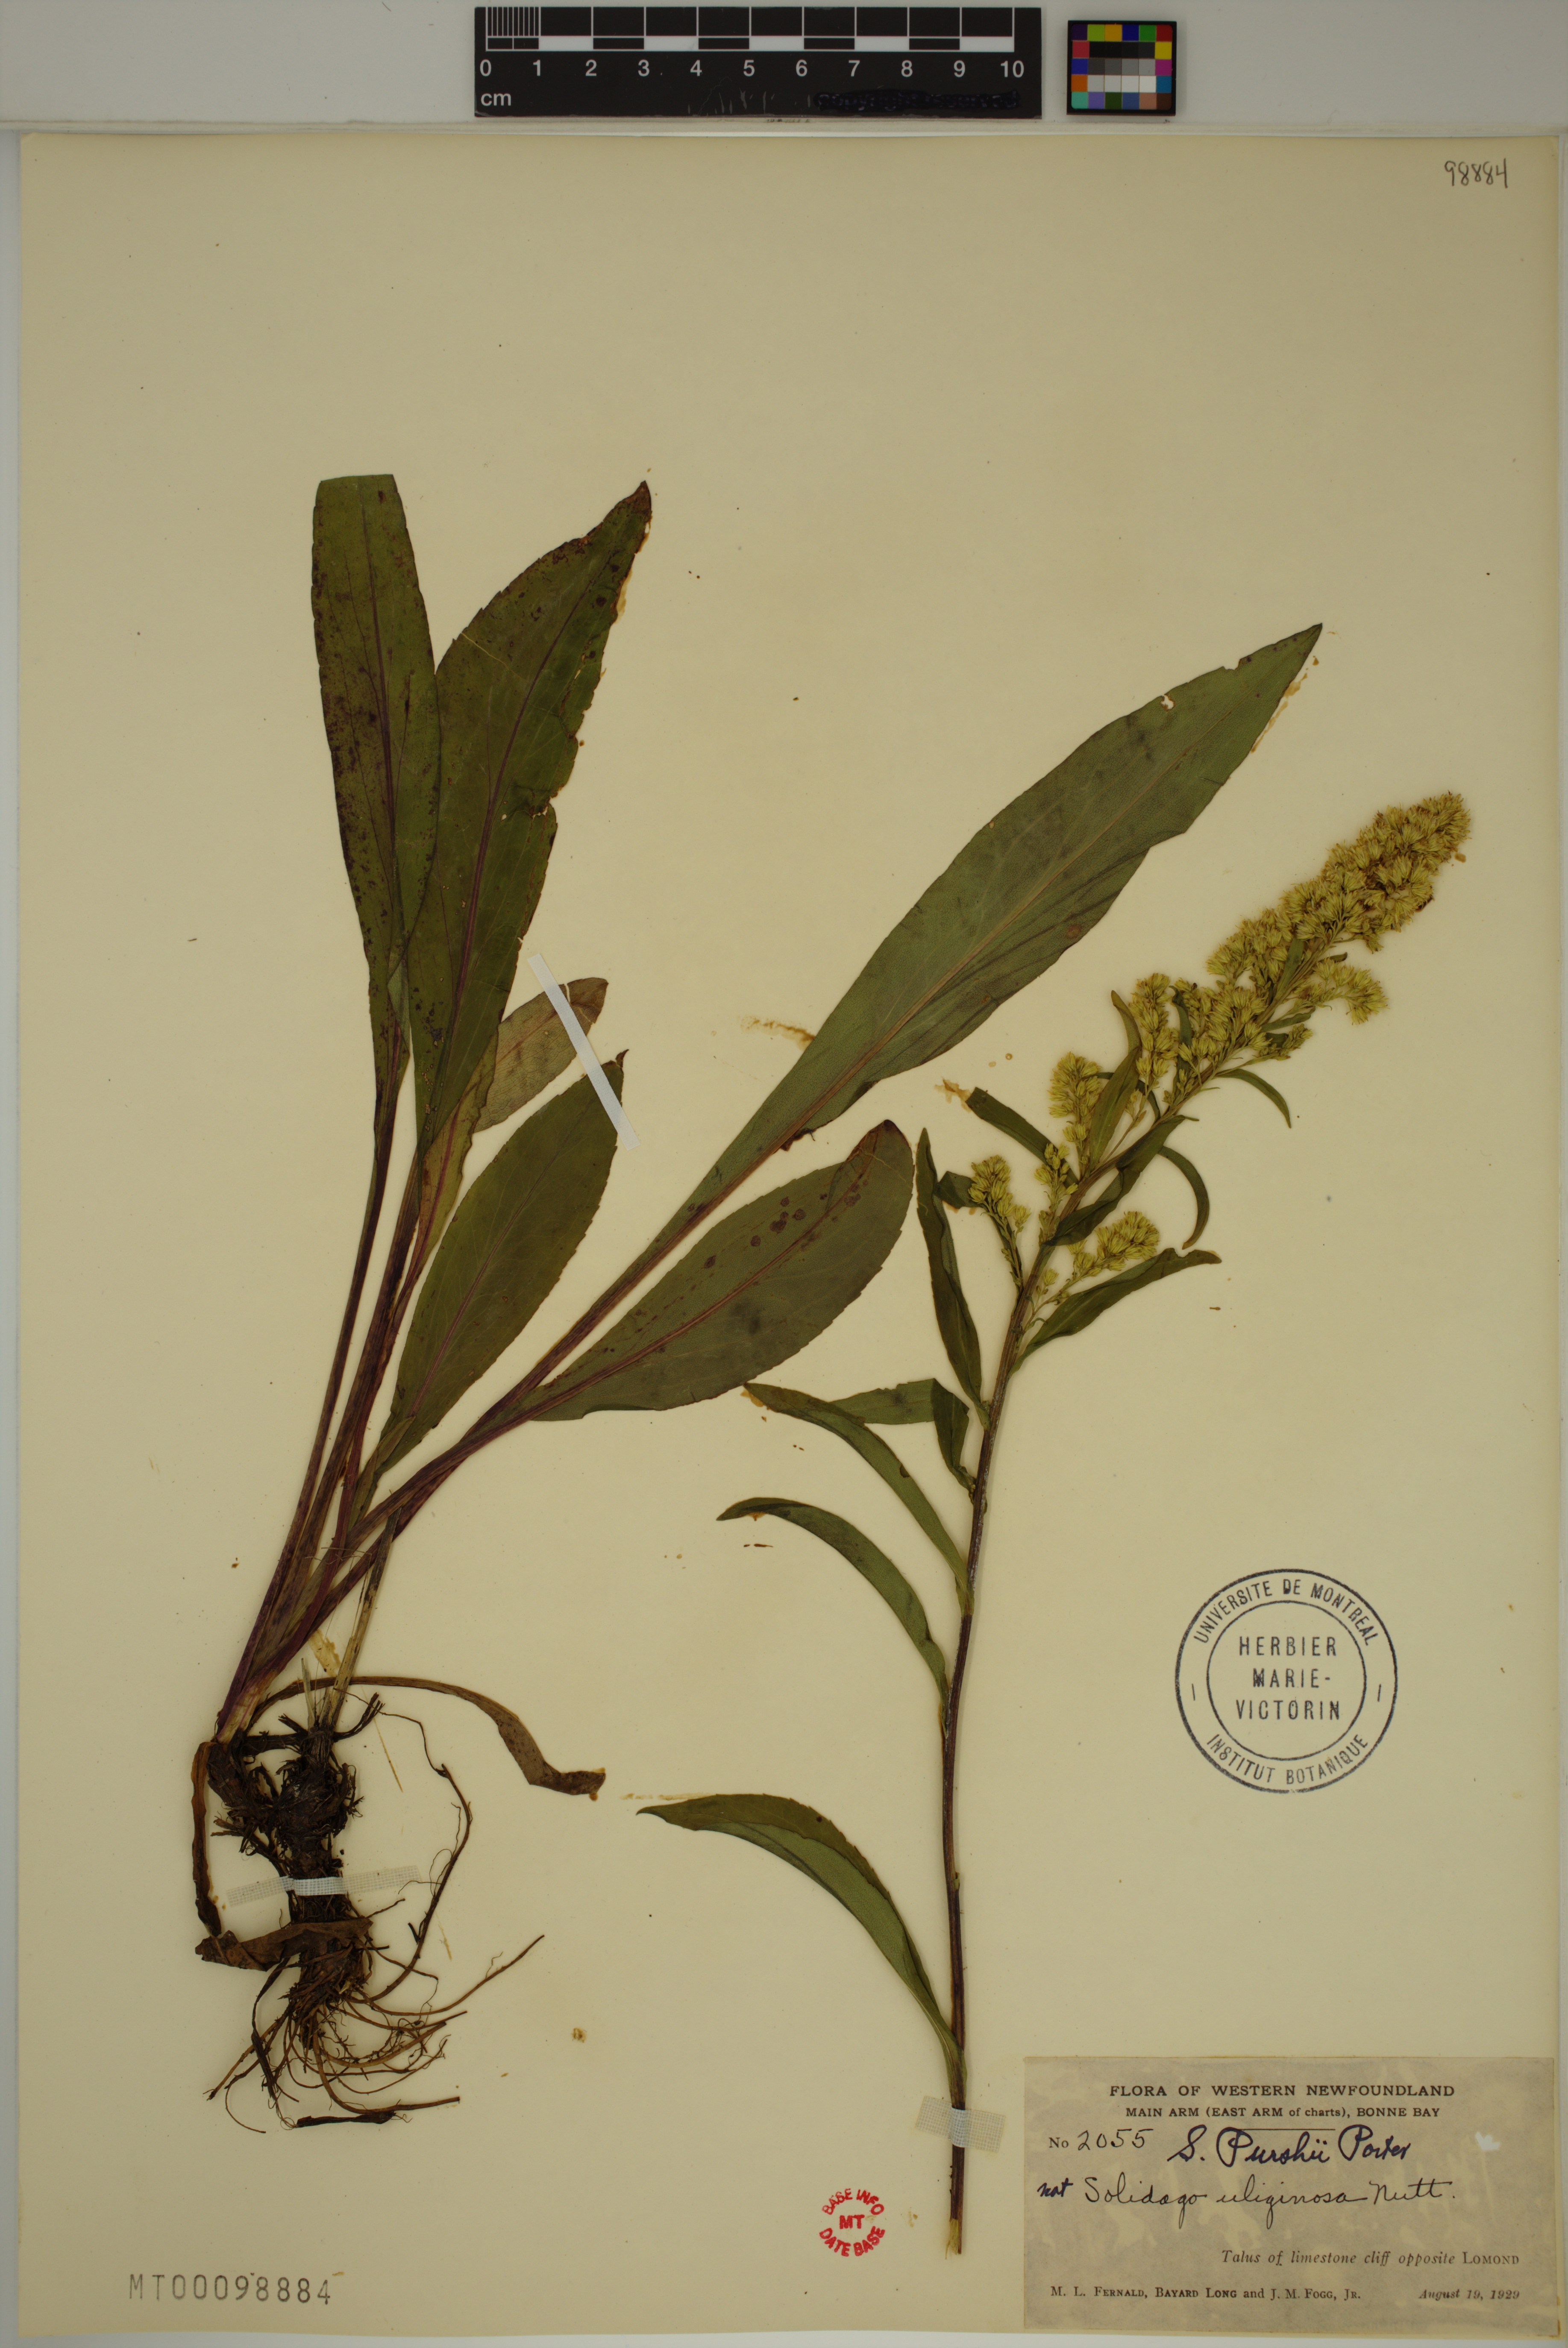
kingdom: Plantae
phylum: Tracheophyta
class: Magnoliopsida
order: Asterales
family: Asteraceae
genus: Solidago
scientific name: Solidago uliginosa
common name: Bog goldenrod
